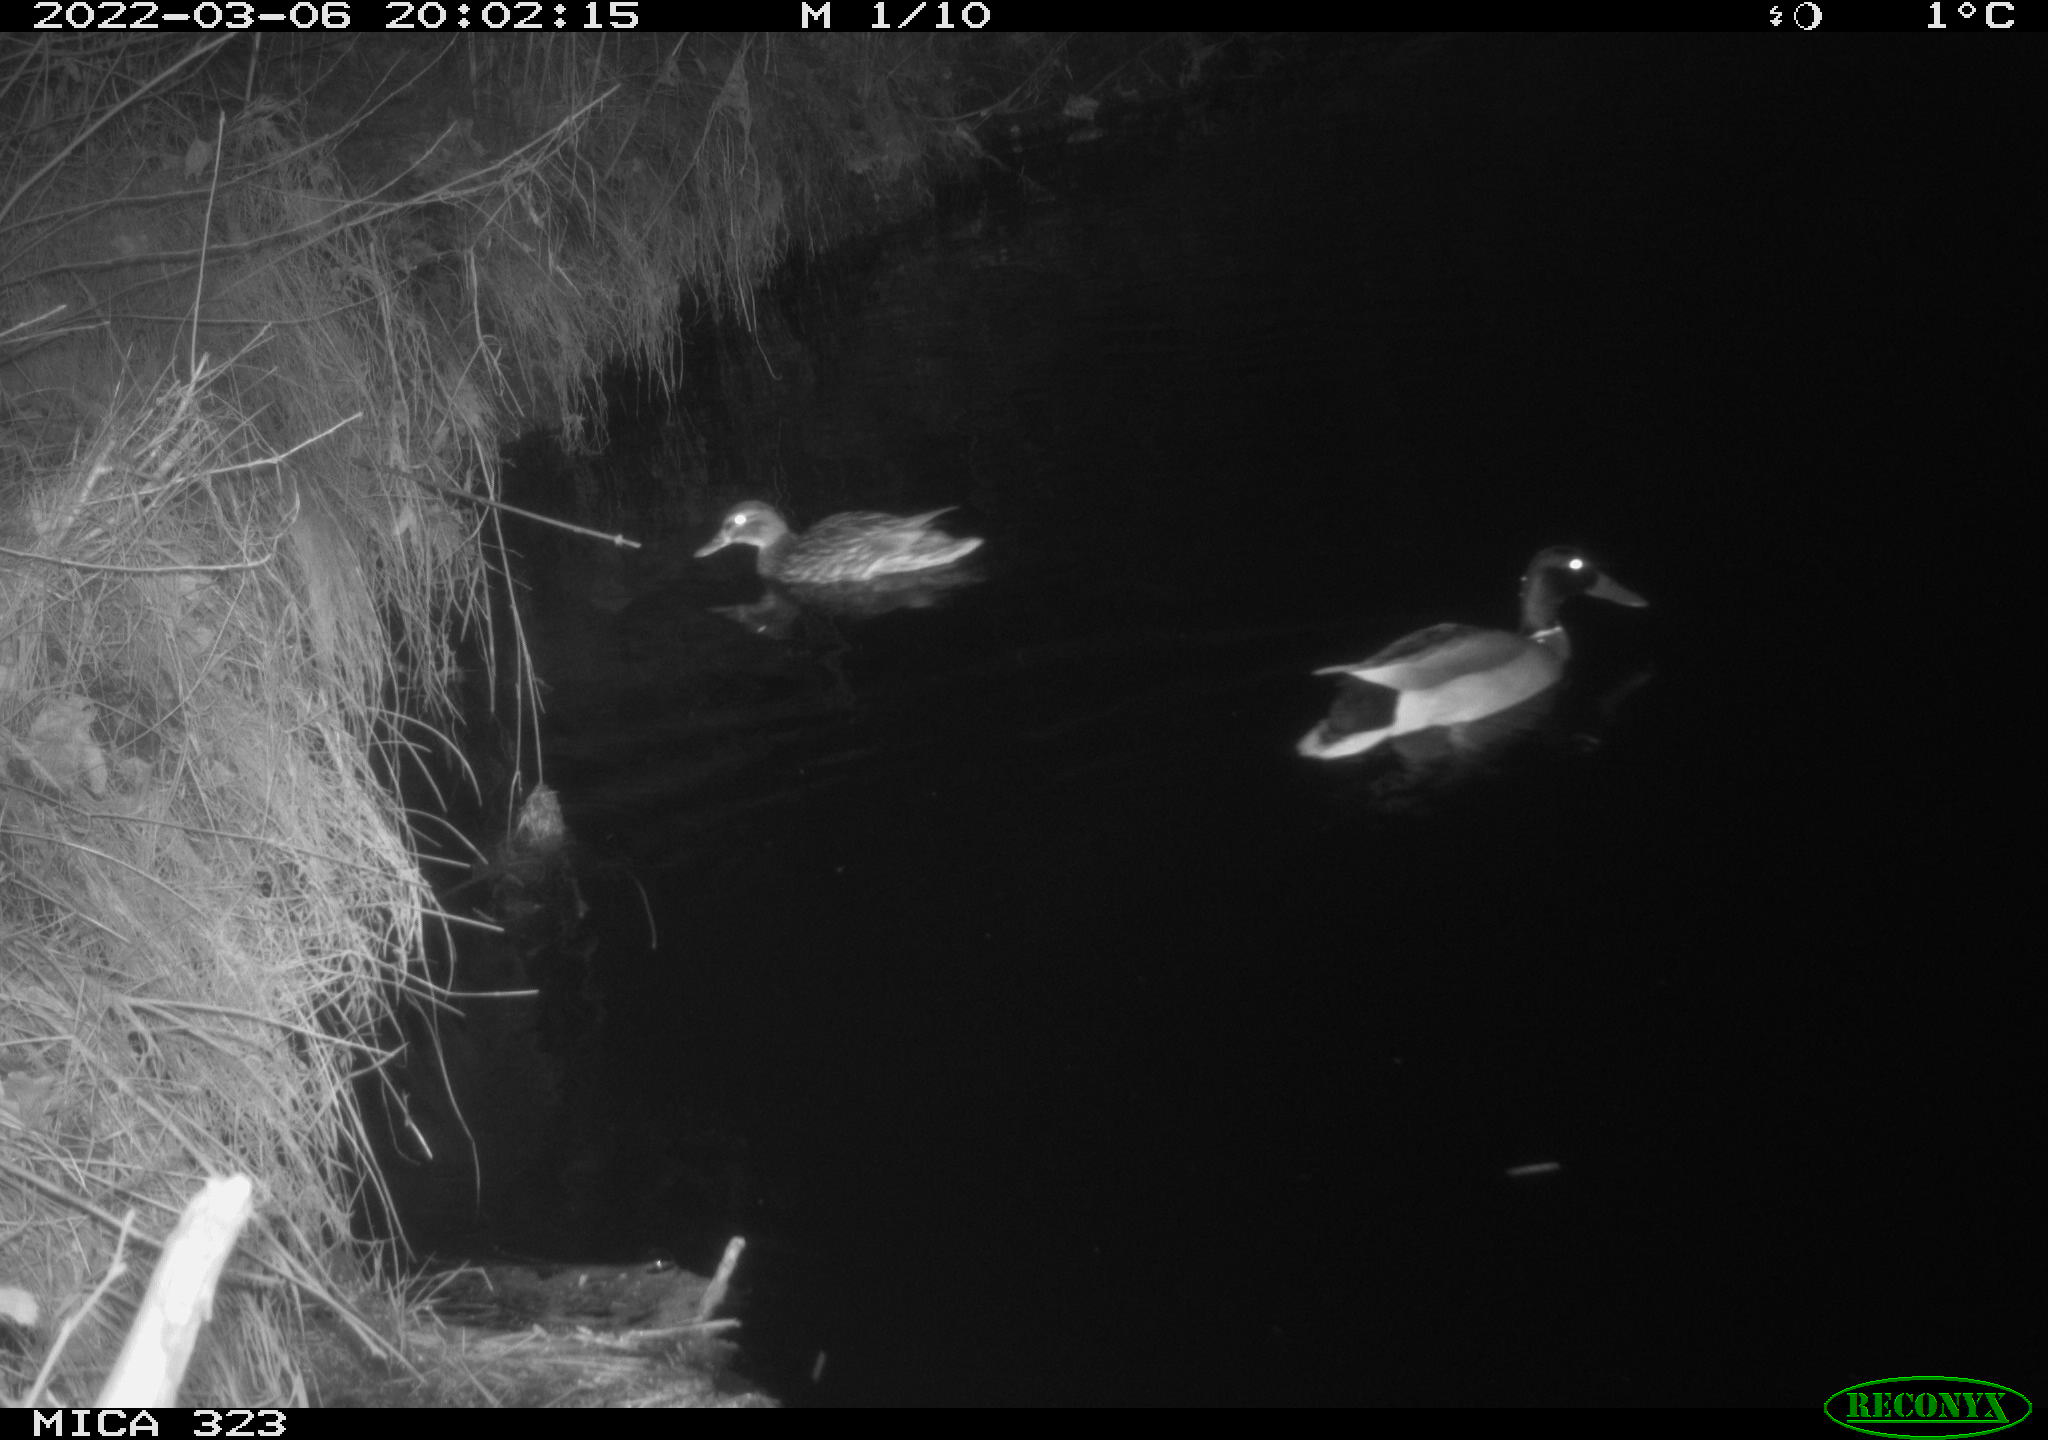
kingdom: Animalia
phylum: Chordata
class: Aves
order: Anseriformes
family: Anatidae
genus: Anas
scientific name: Anas platyrhynchos
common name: Mallard
